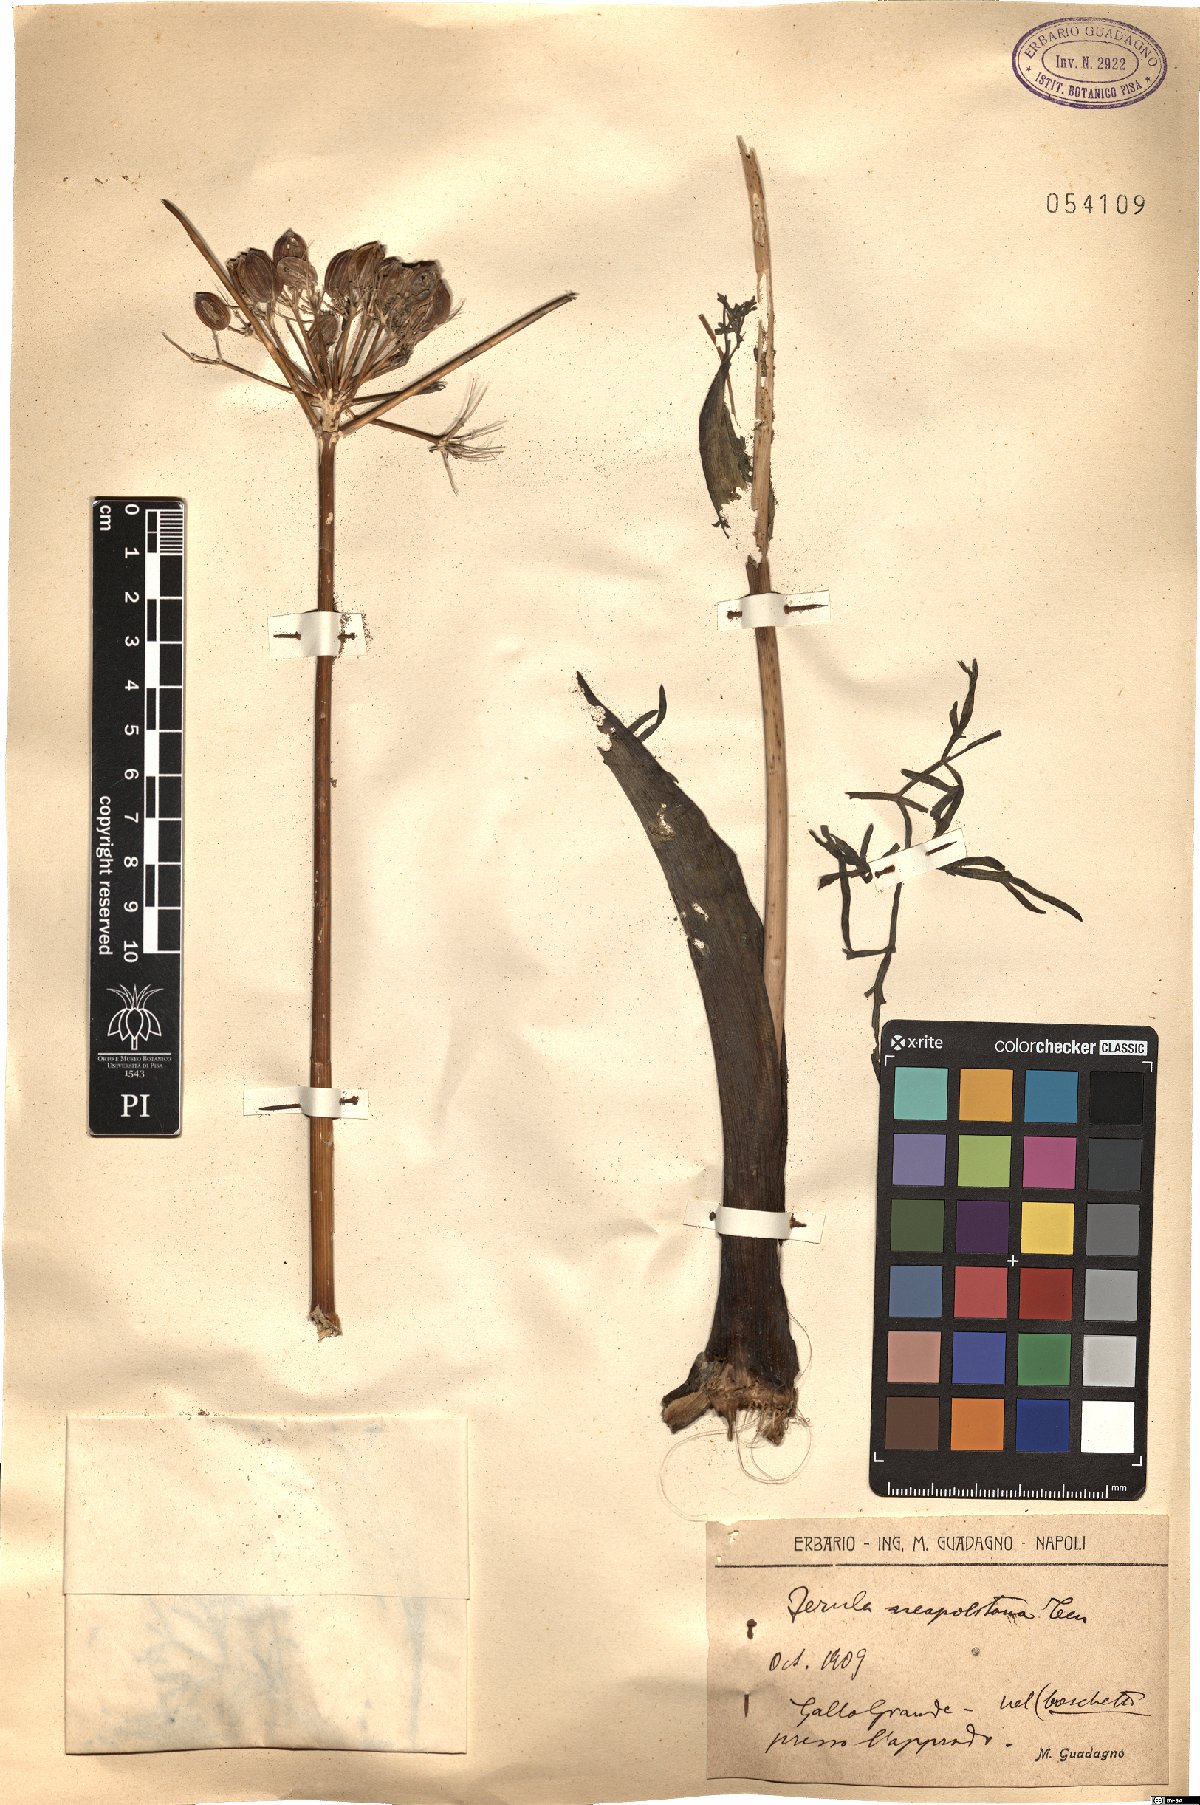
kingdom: Plantae
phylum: Tracheophyta
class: Magnoliopsida
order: Apiales
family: Apiaceae
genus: Ferula
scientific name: Ferula glauca
